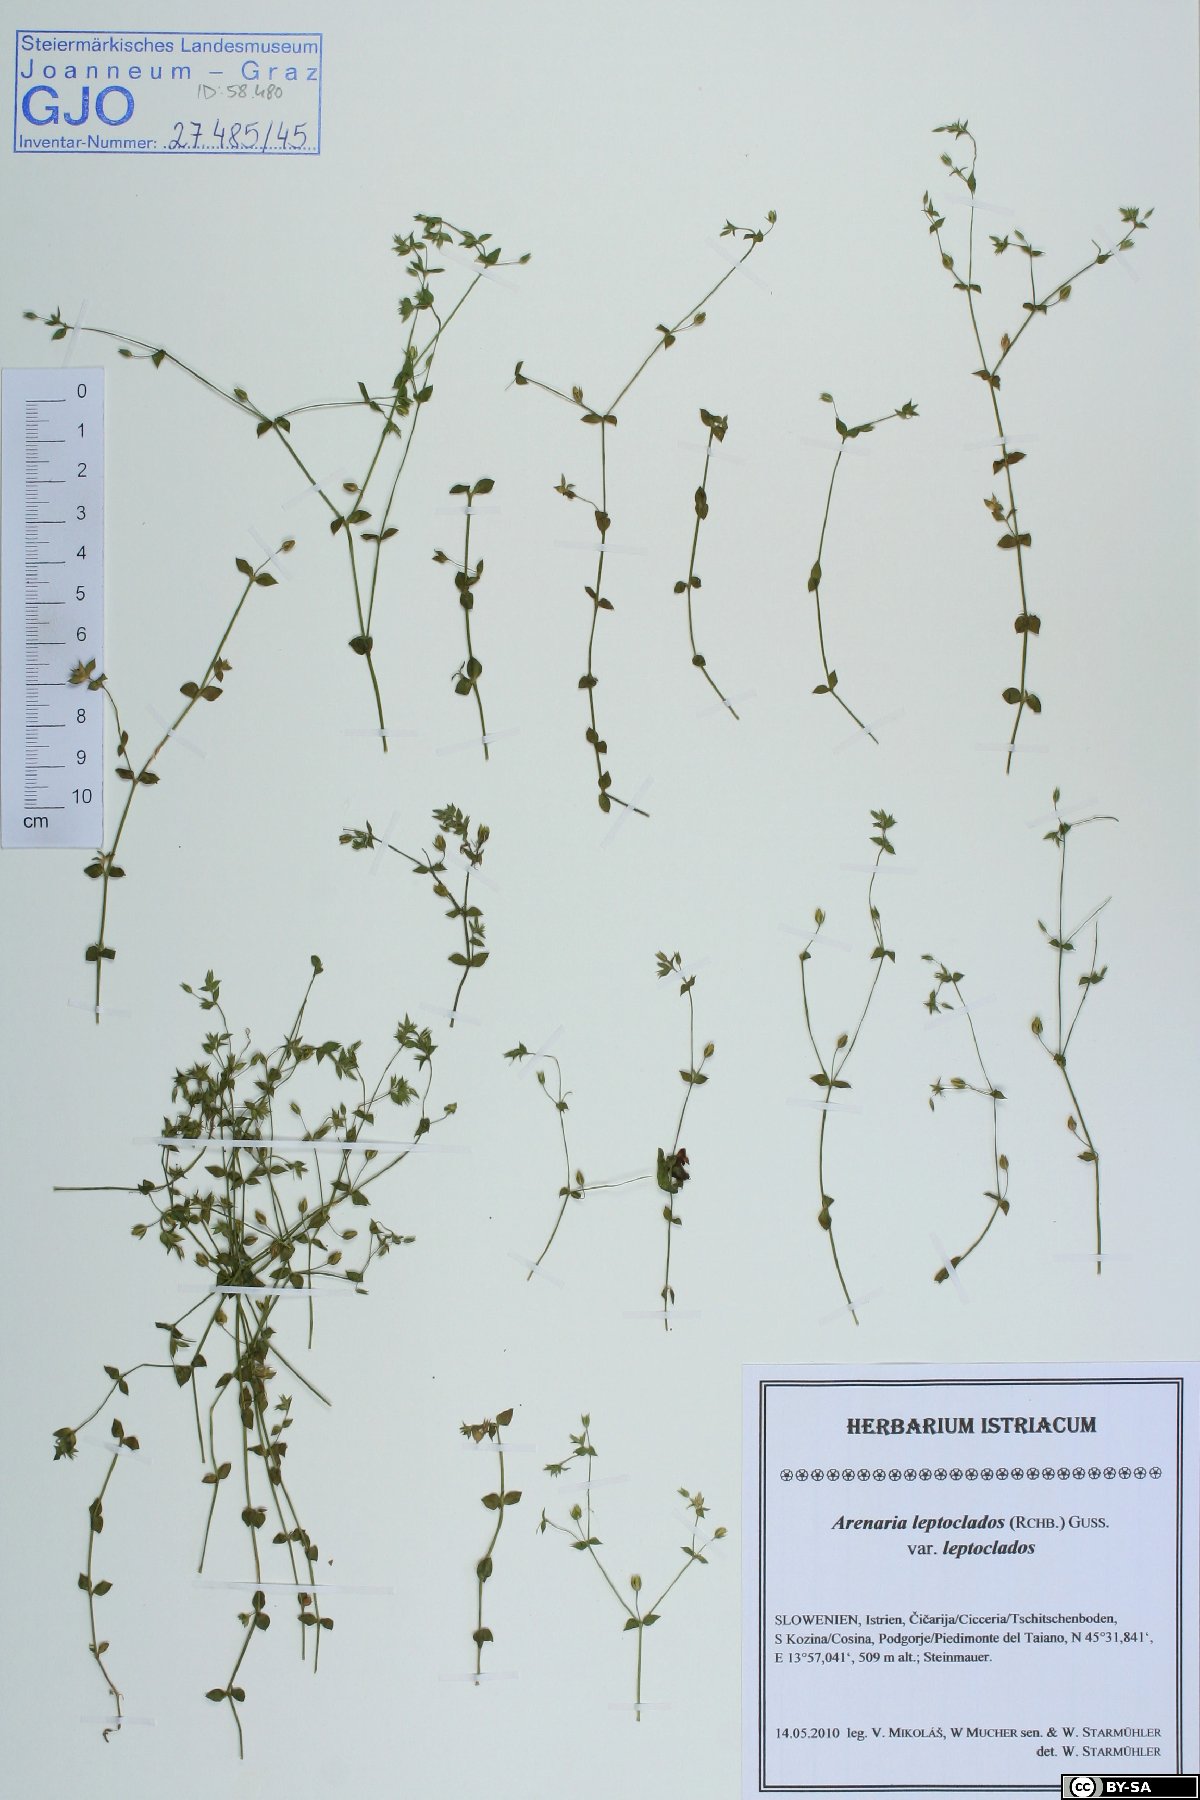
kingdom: Plantae
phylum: Tracheophyta
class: Magnoliopsida
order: Caryophyllales
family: Caryophyllaceae
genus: Arenaria
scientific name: Arenaria leptoclados
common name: Thyme-leaved sandwort
